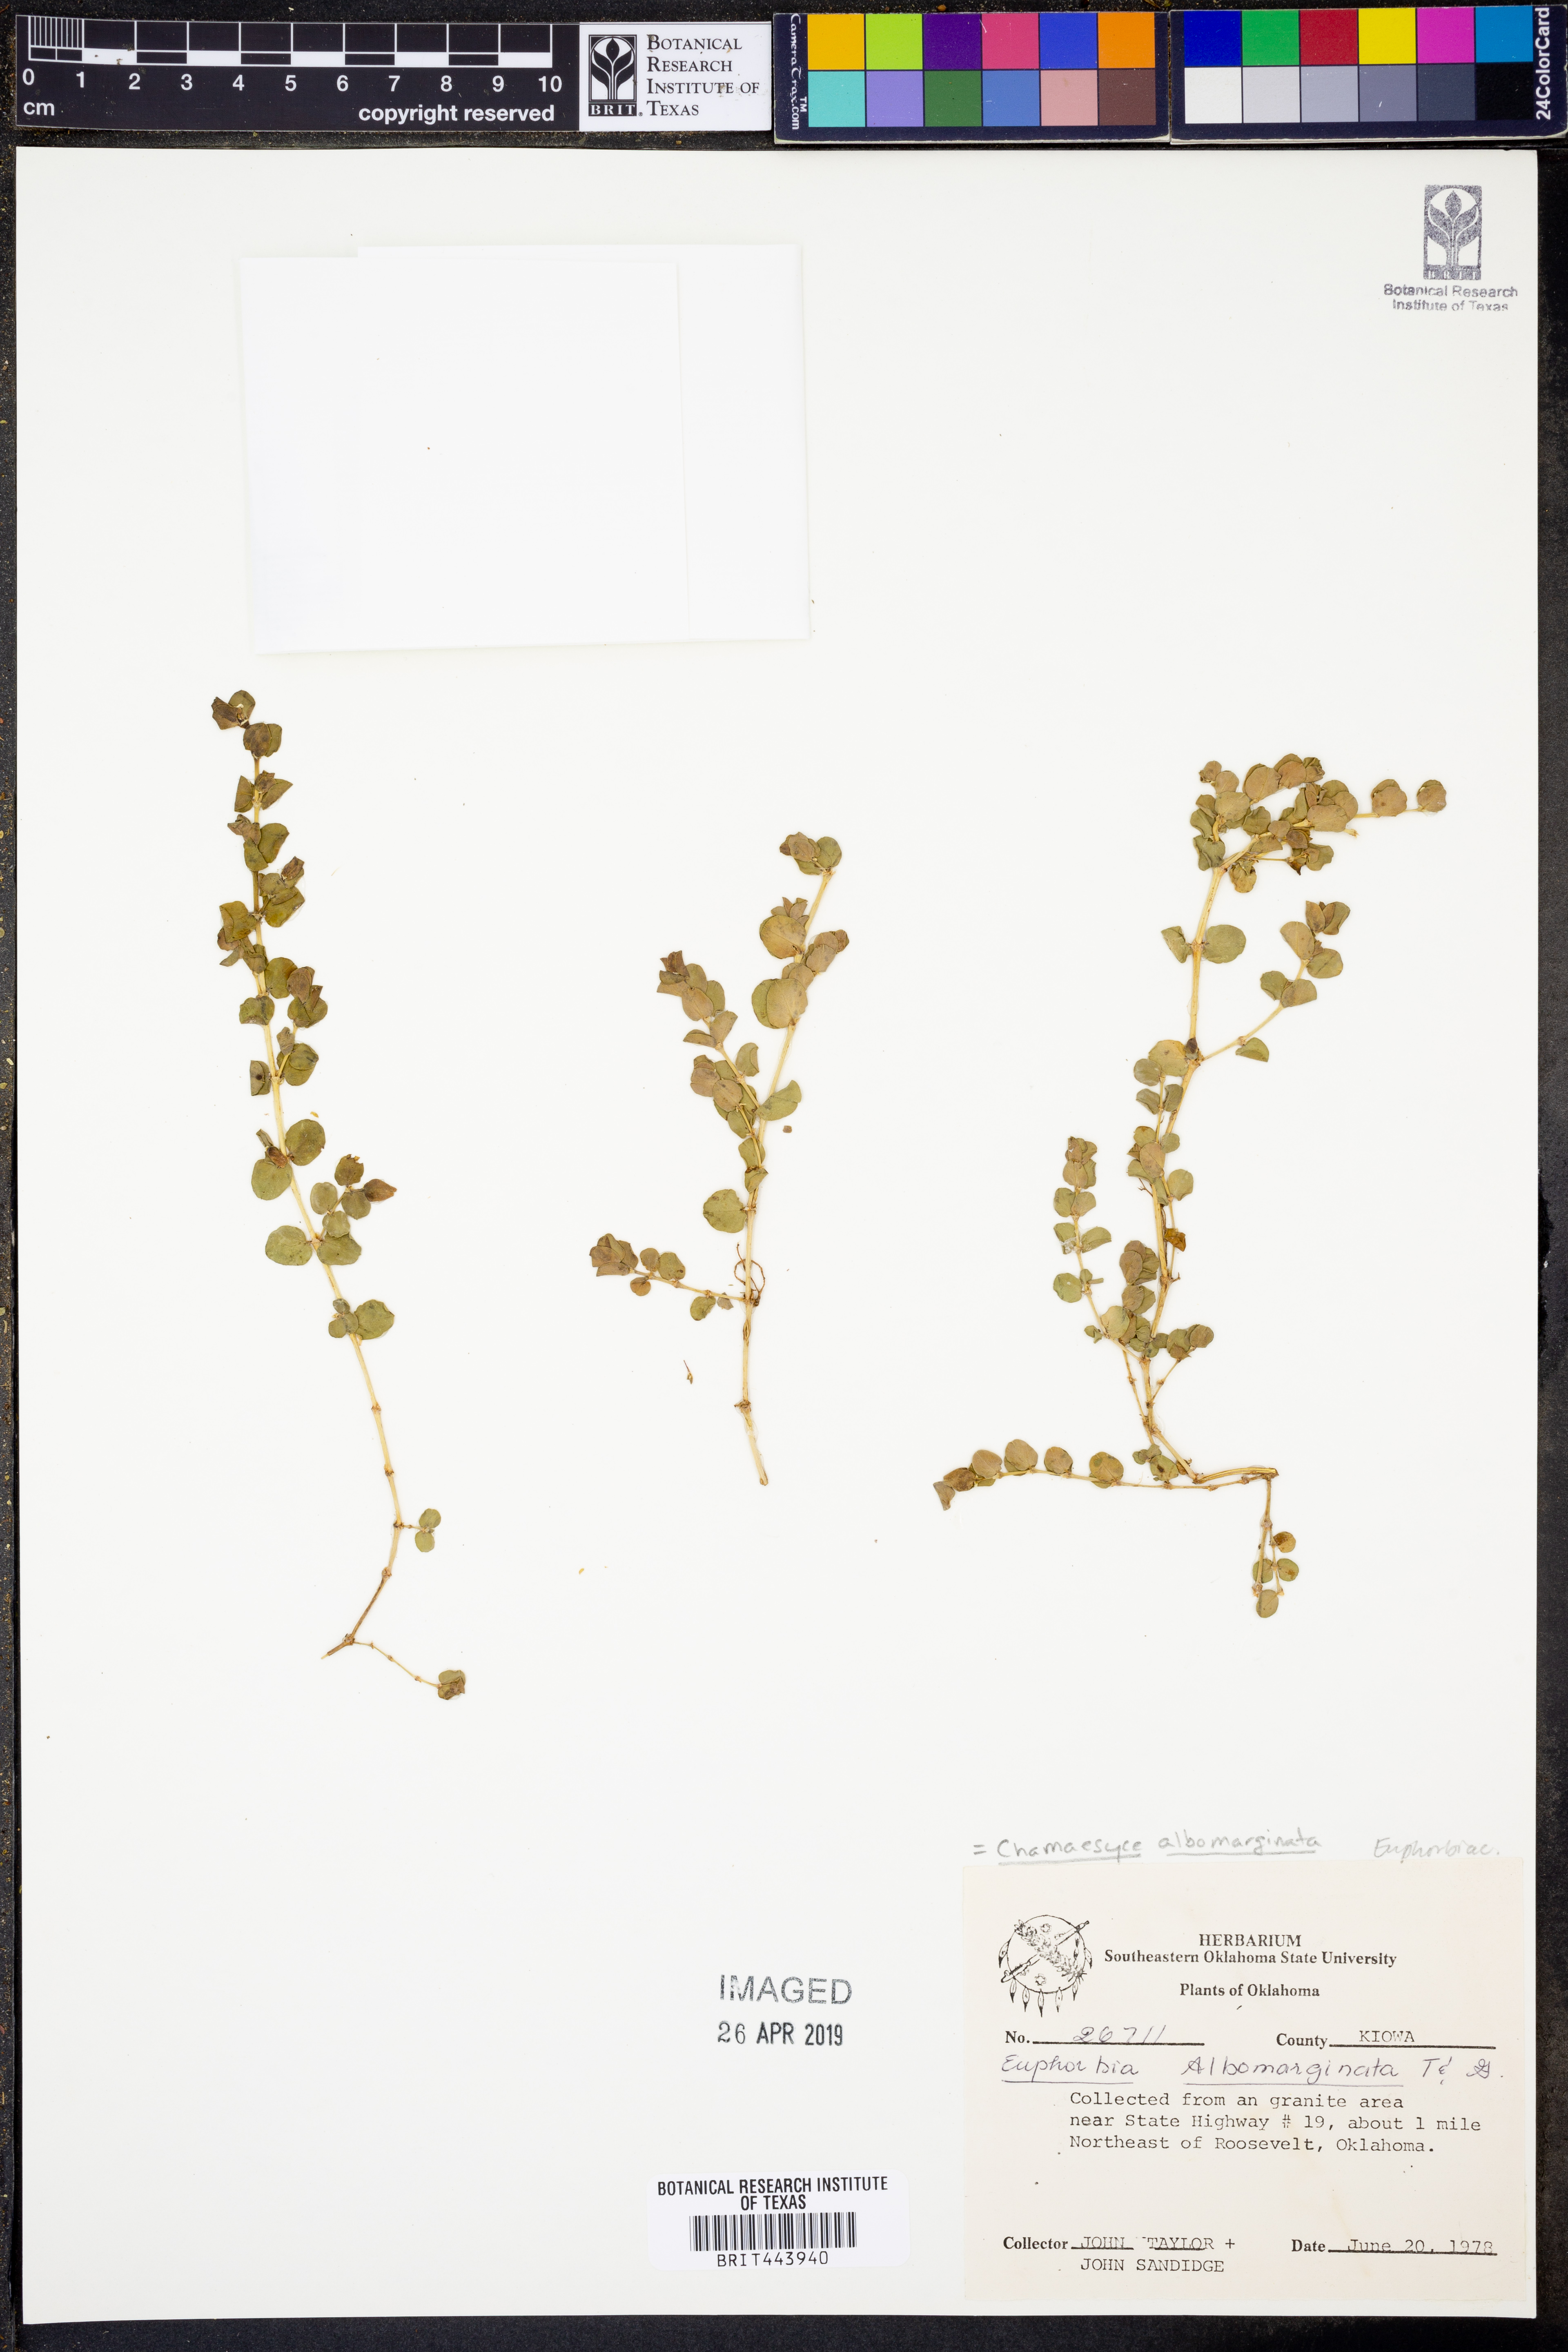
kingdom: Plantae
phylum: Tracheophyta
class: Magnoliopsida
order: Malpighiales
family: Euphorbiaceae
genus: Euphorbia
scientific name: Euphorbia albomarginata
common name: Whitemargin sandmat
